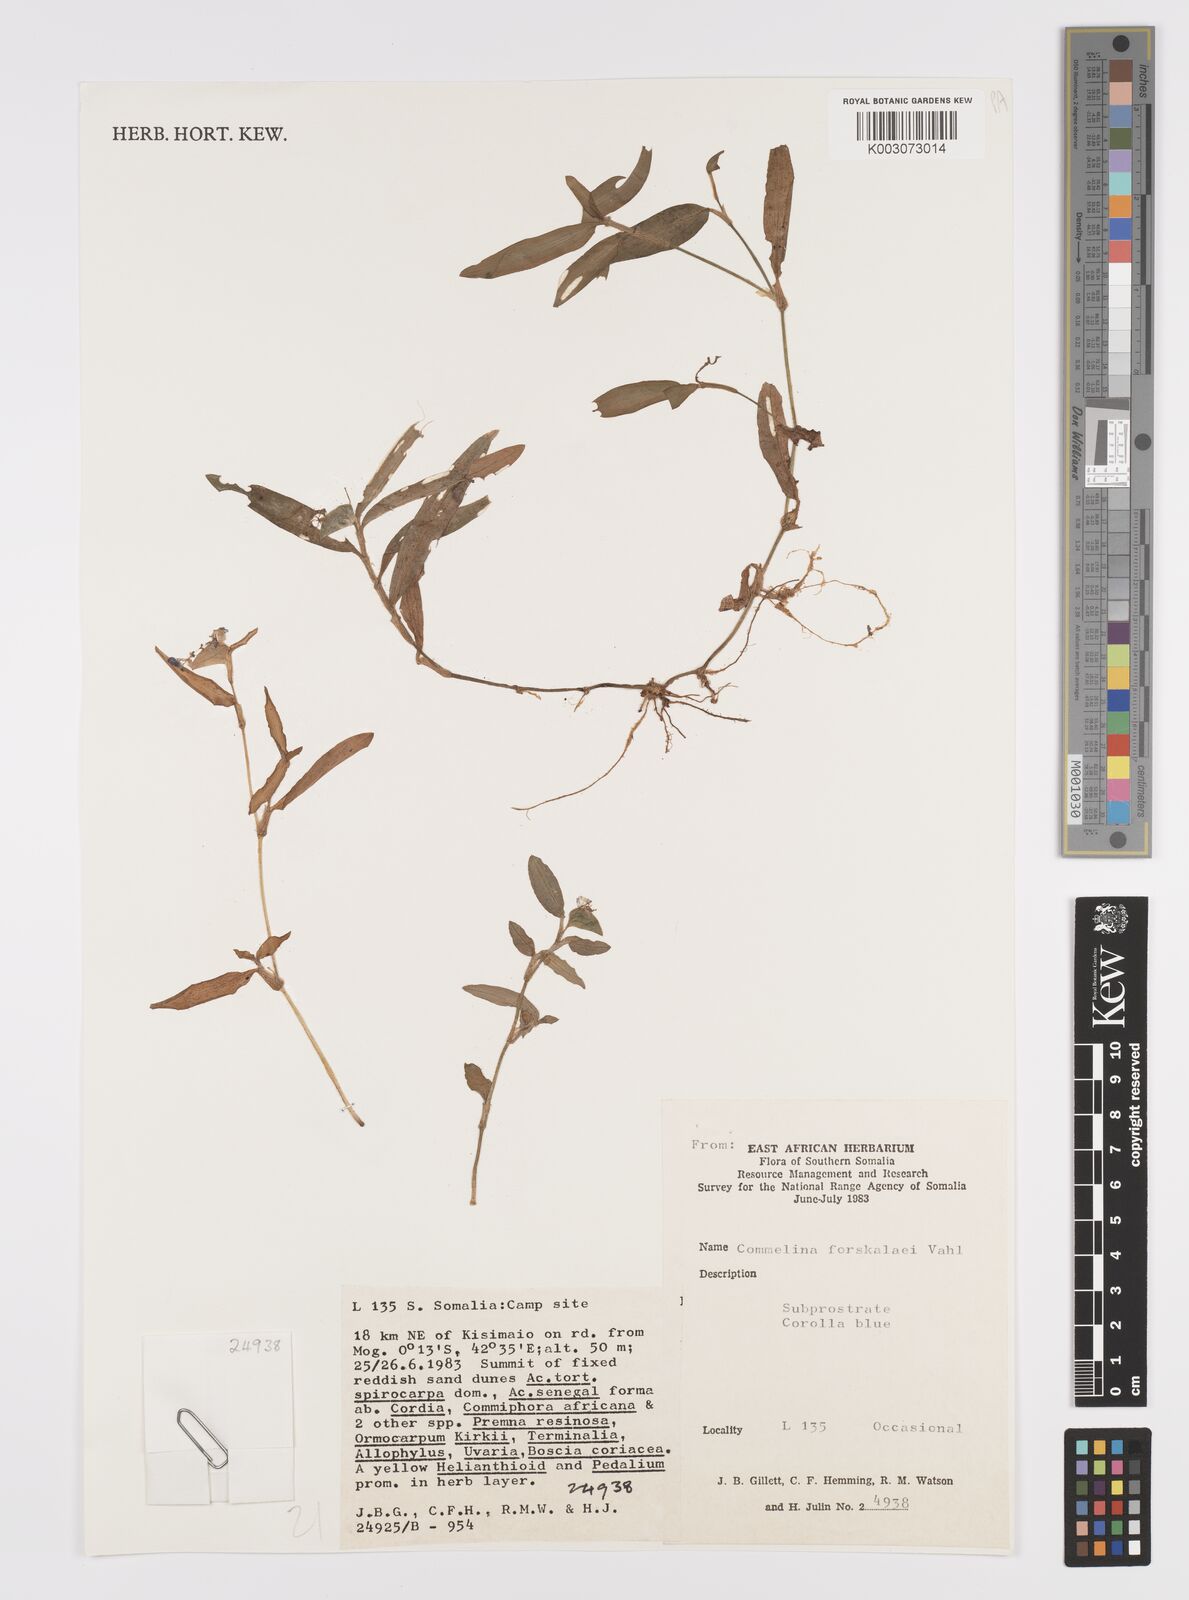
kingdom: Plantae
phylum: Tracheophyta
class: Liliopsida
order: Commelinales
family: Commelinaceae
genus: Commelina
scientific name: Commelina forskaolii
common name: Rat's ear
